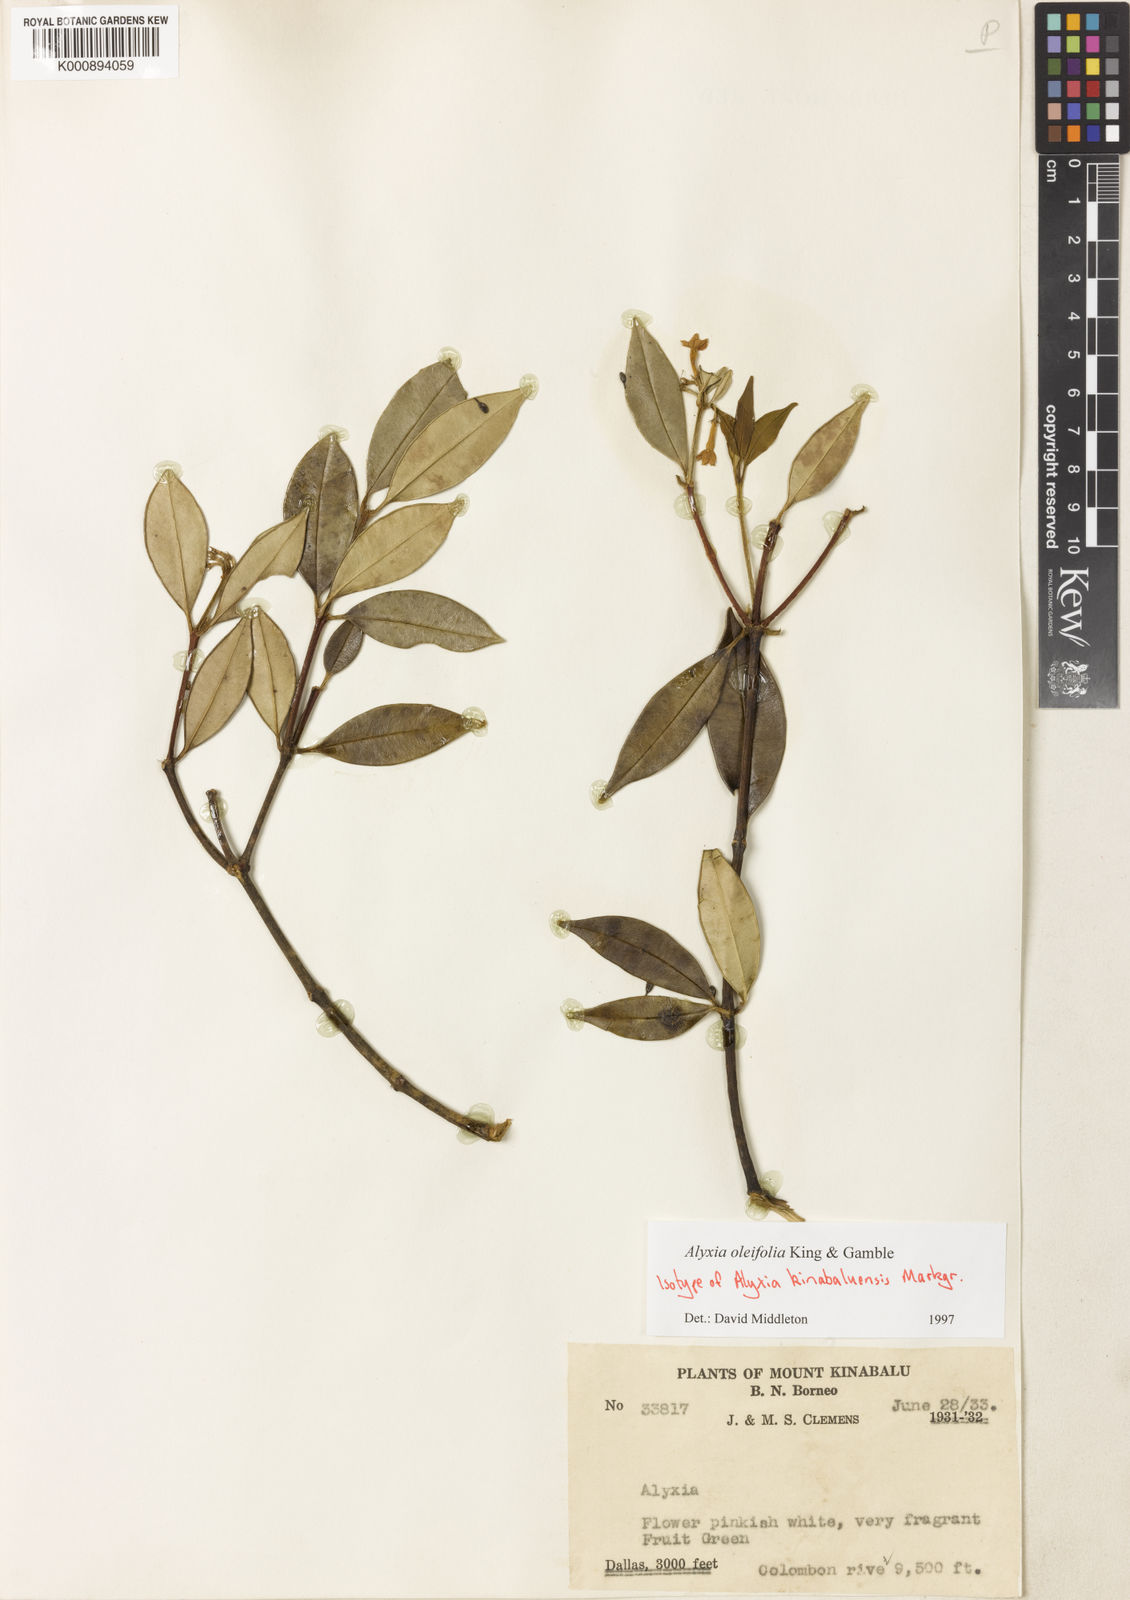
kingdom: Plantae
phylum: Tracheophyta
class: Magnoliopsida
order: Gentianales
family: Apocynaceae
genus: Alyxia
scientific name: Alyxia oleifolia
